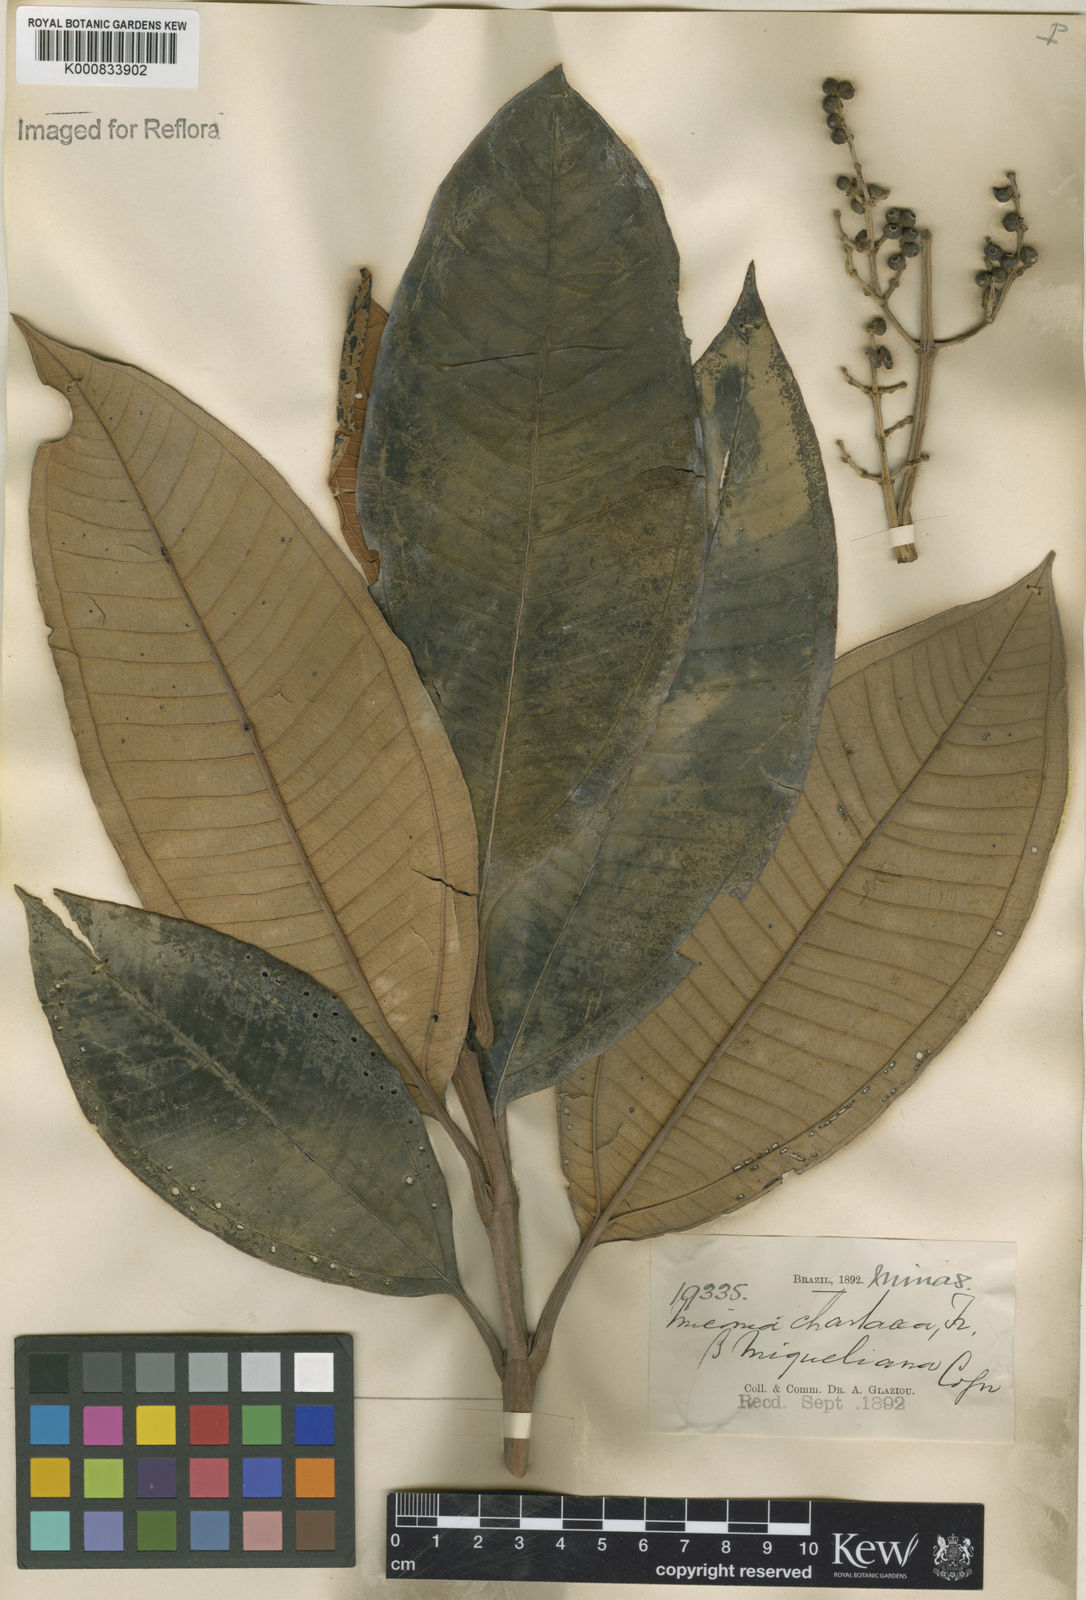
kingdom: Plantae
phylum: Tracheophyta
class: Magnoliopsida
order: Myrtales
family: Melastomataceae
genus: Miconia
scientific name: Miconia chartacea
